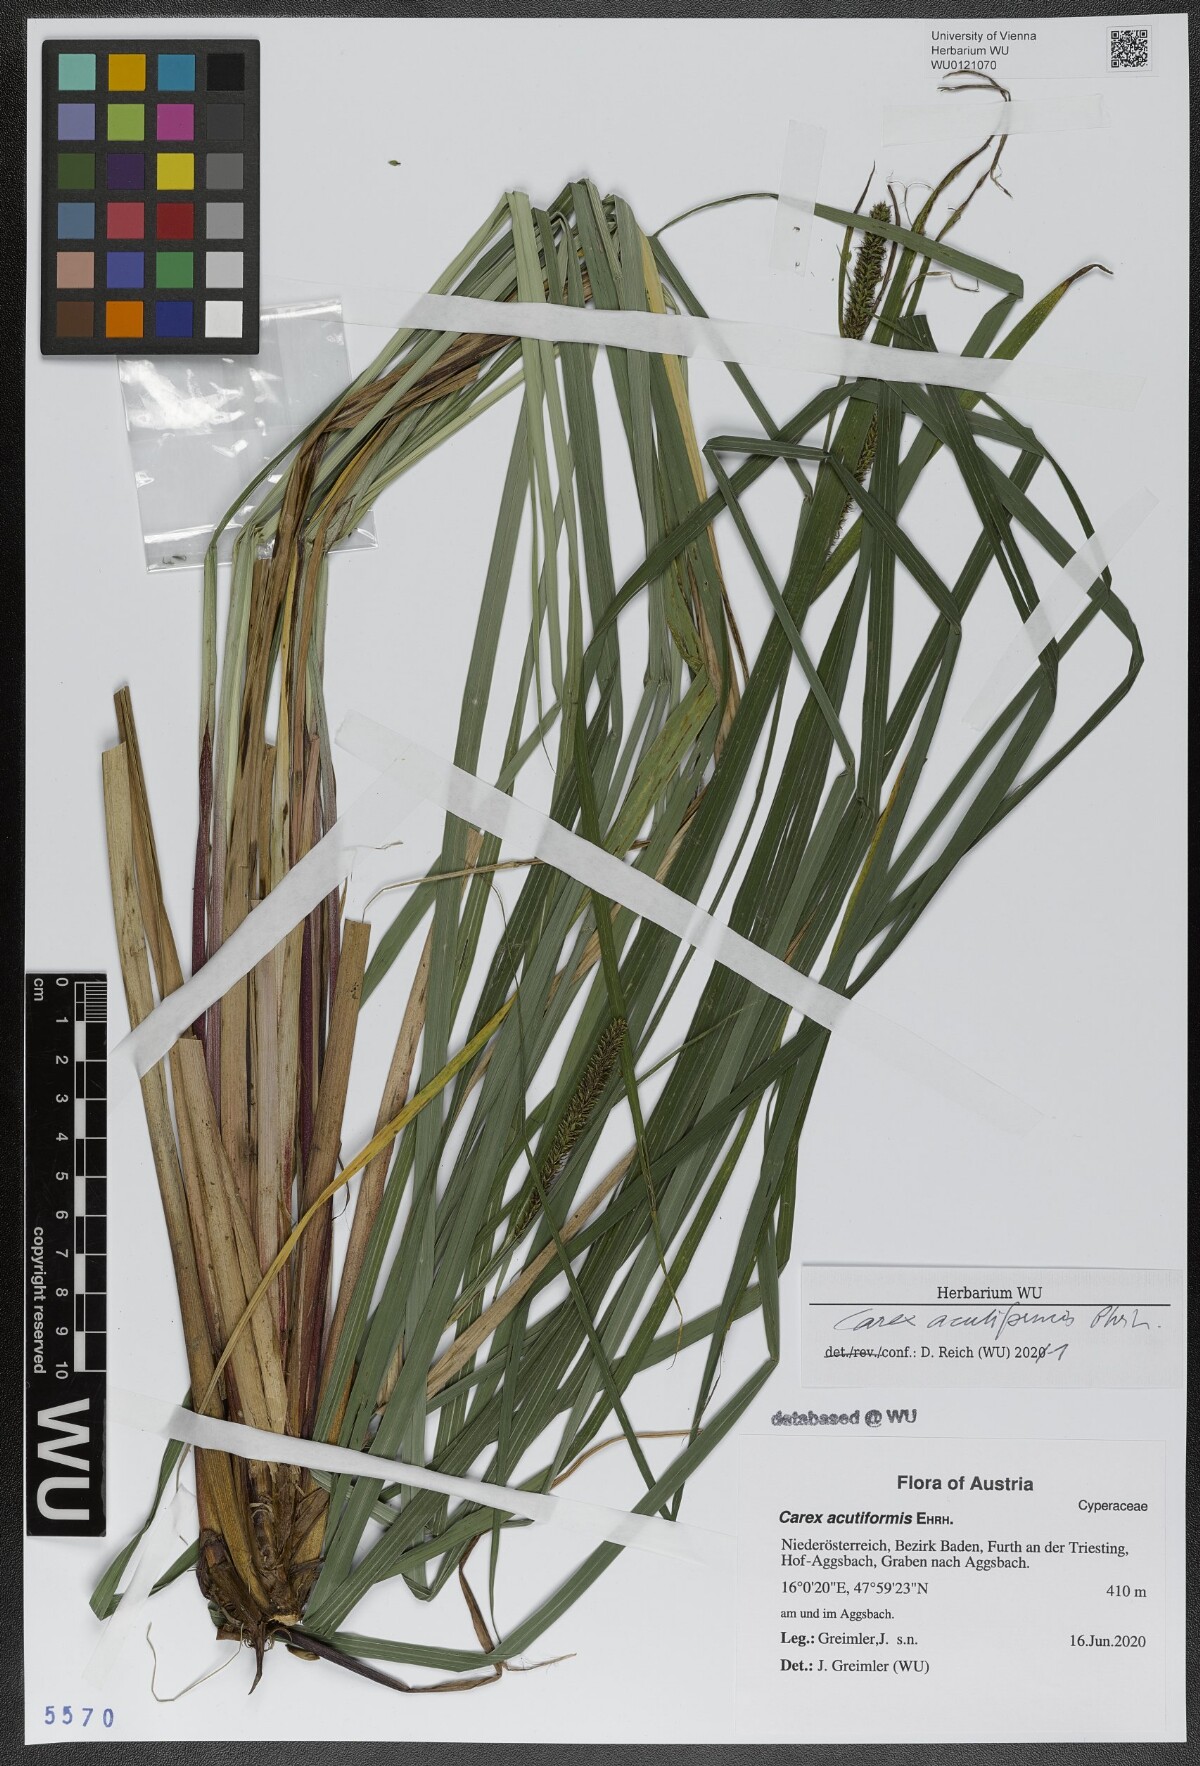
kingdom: Plantae
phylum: Tracheophyta
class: Liliopsida
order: Poales
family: Cyperaceae
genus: Carex
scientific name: Carex acutiformis
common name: Lesser pond-sedge
